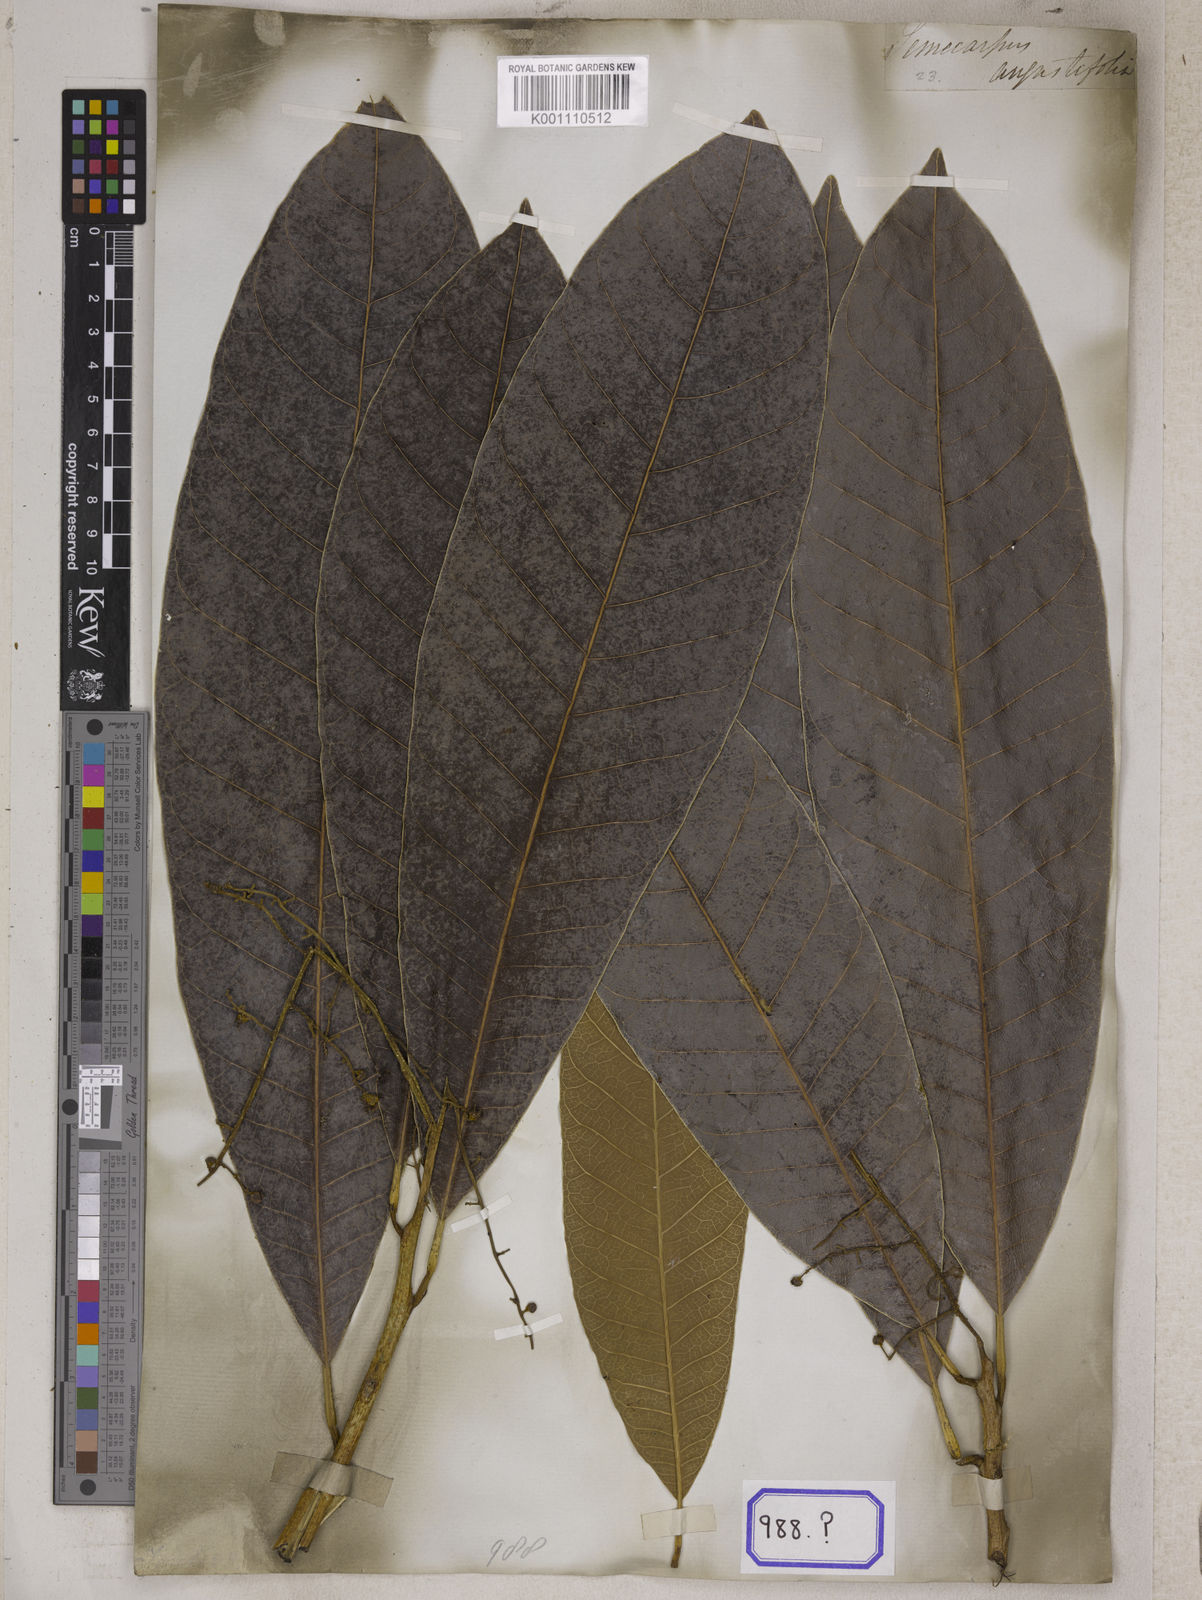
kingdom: Plantae
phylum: Tracheophyta
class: Magnoliopsida
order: Sapindales
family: Anacardiaceae
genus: Semecarpus
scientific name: Semecarpus cassuvium
